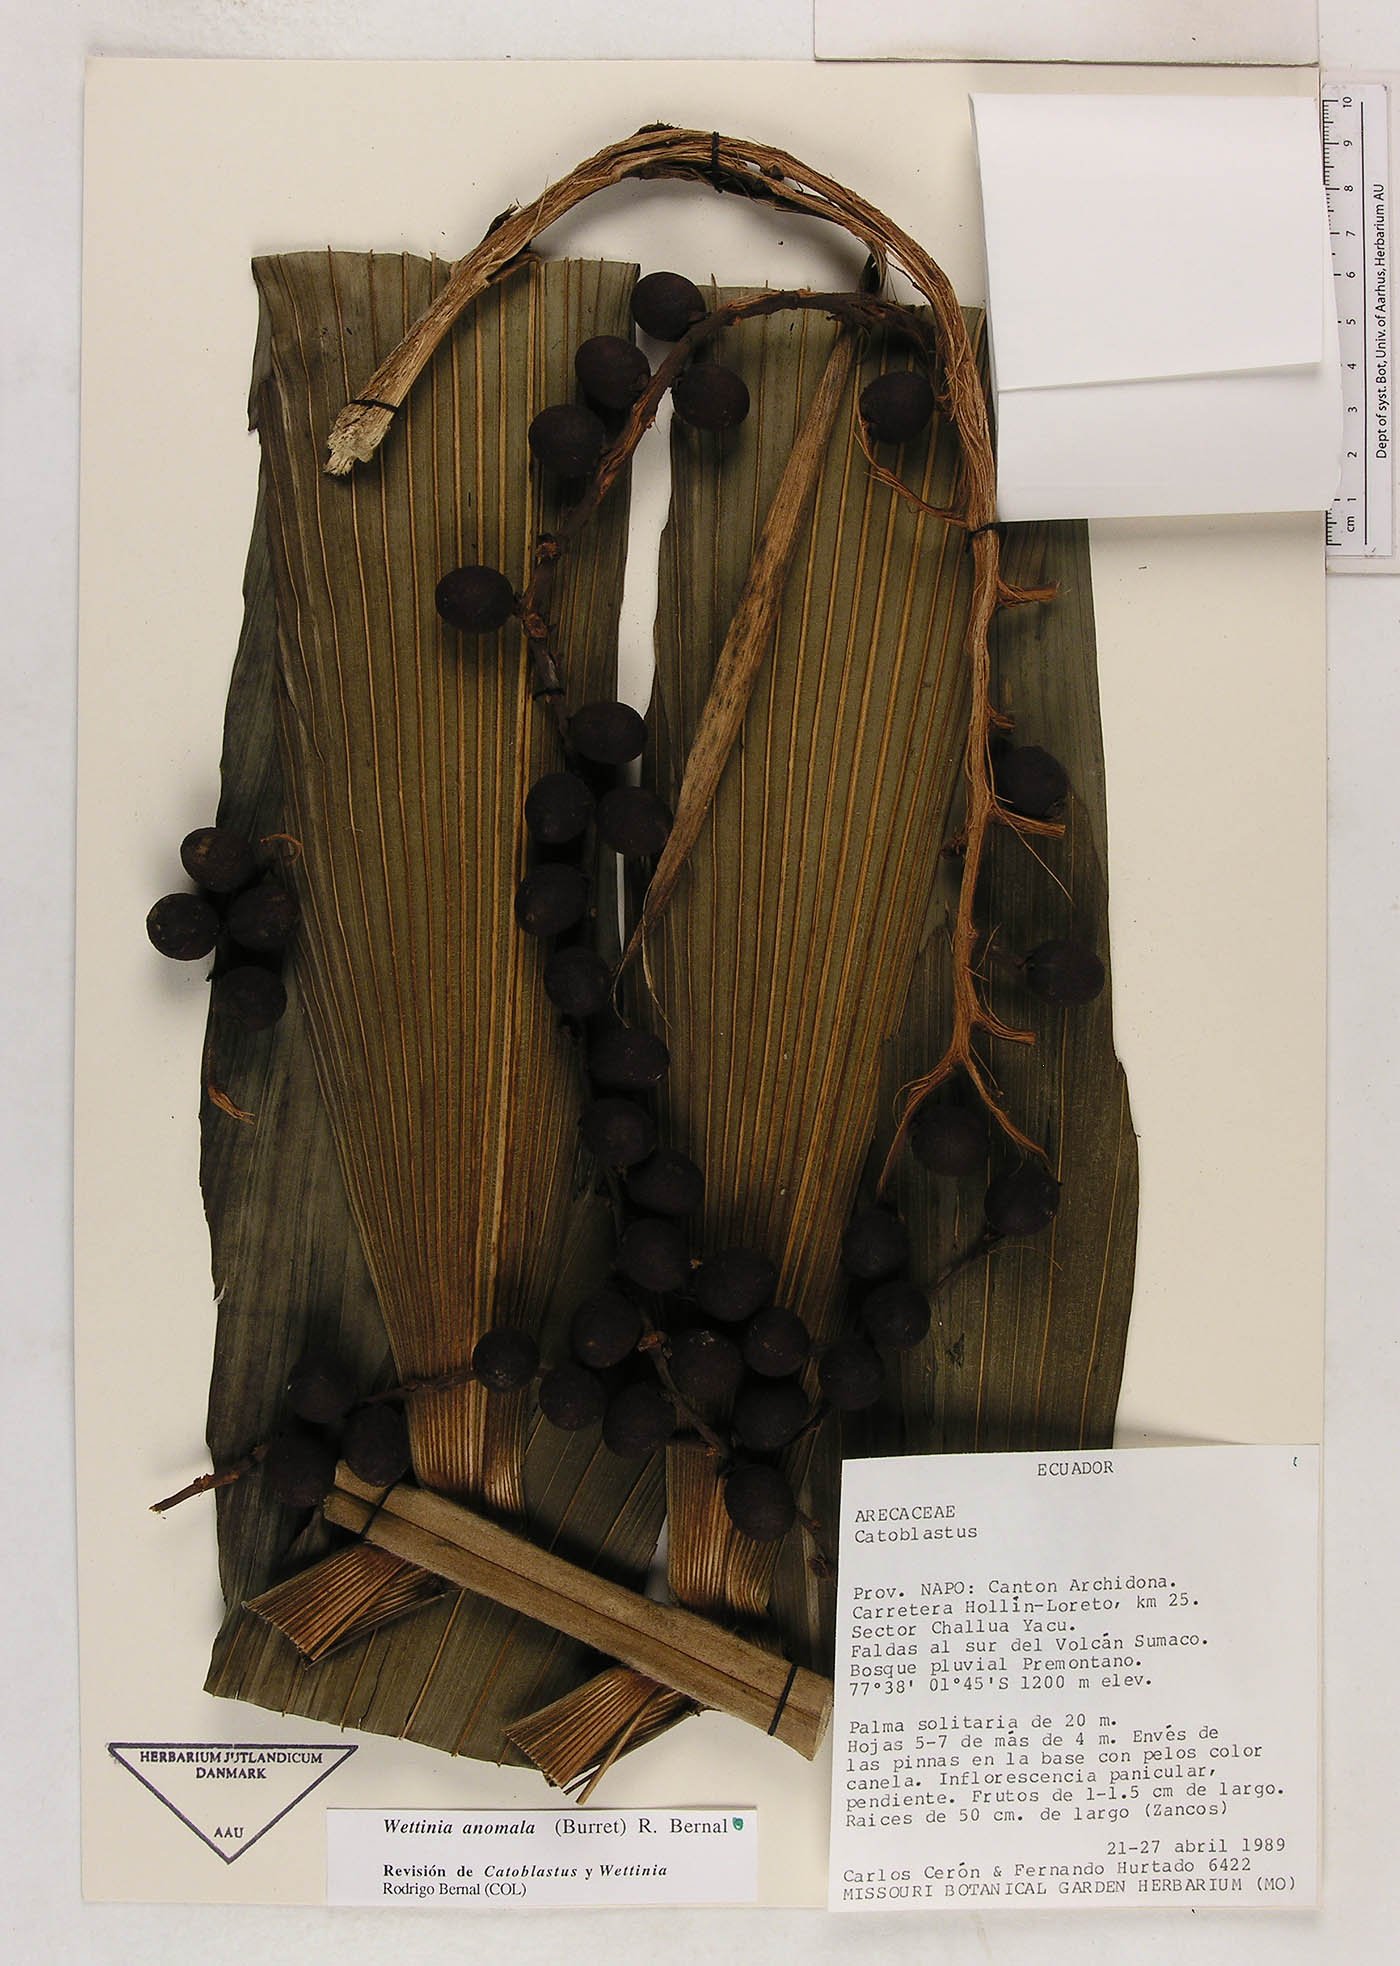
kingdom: Plantae
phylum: Tracheophyta
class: Liliopsida
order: Arecales
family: Arecaceae
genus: Wettinia
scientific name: Wettinia anomala
